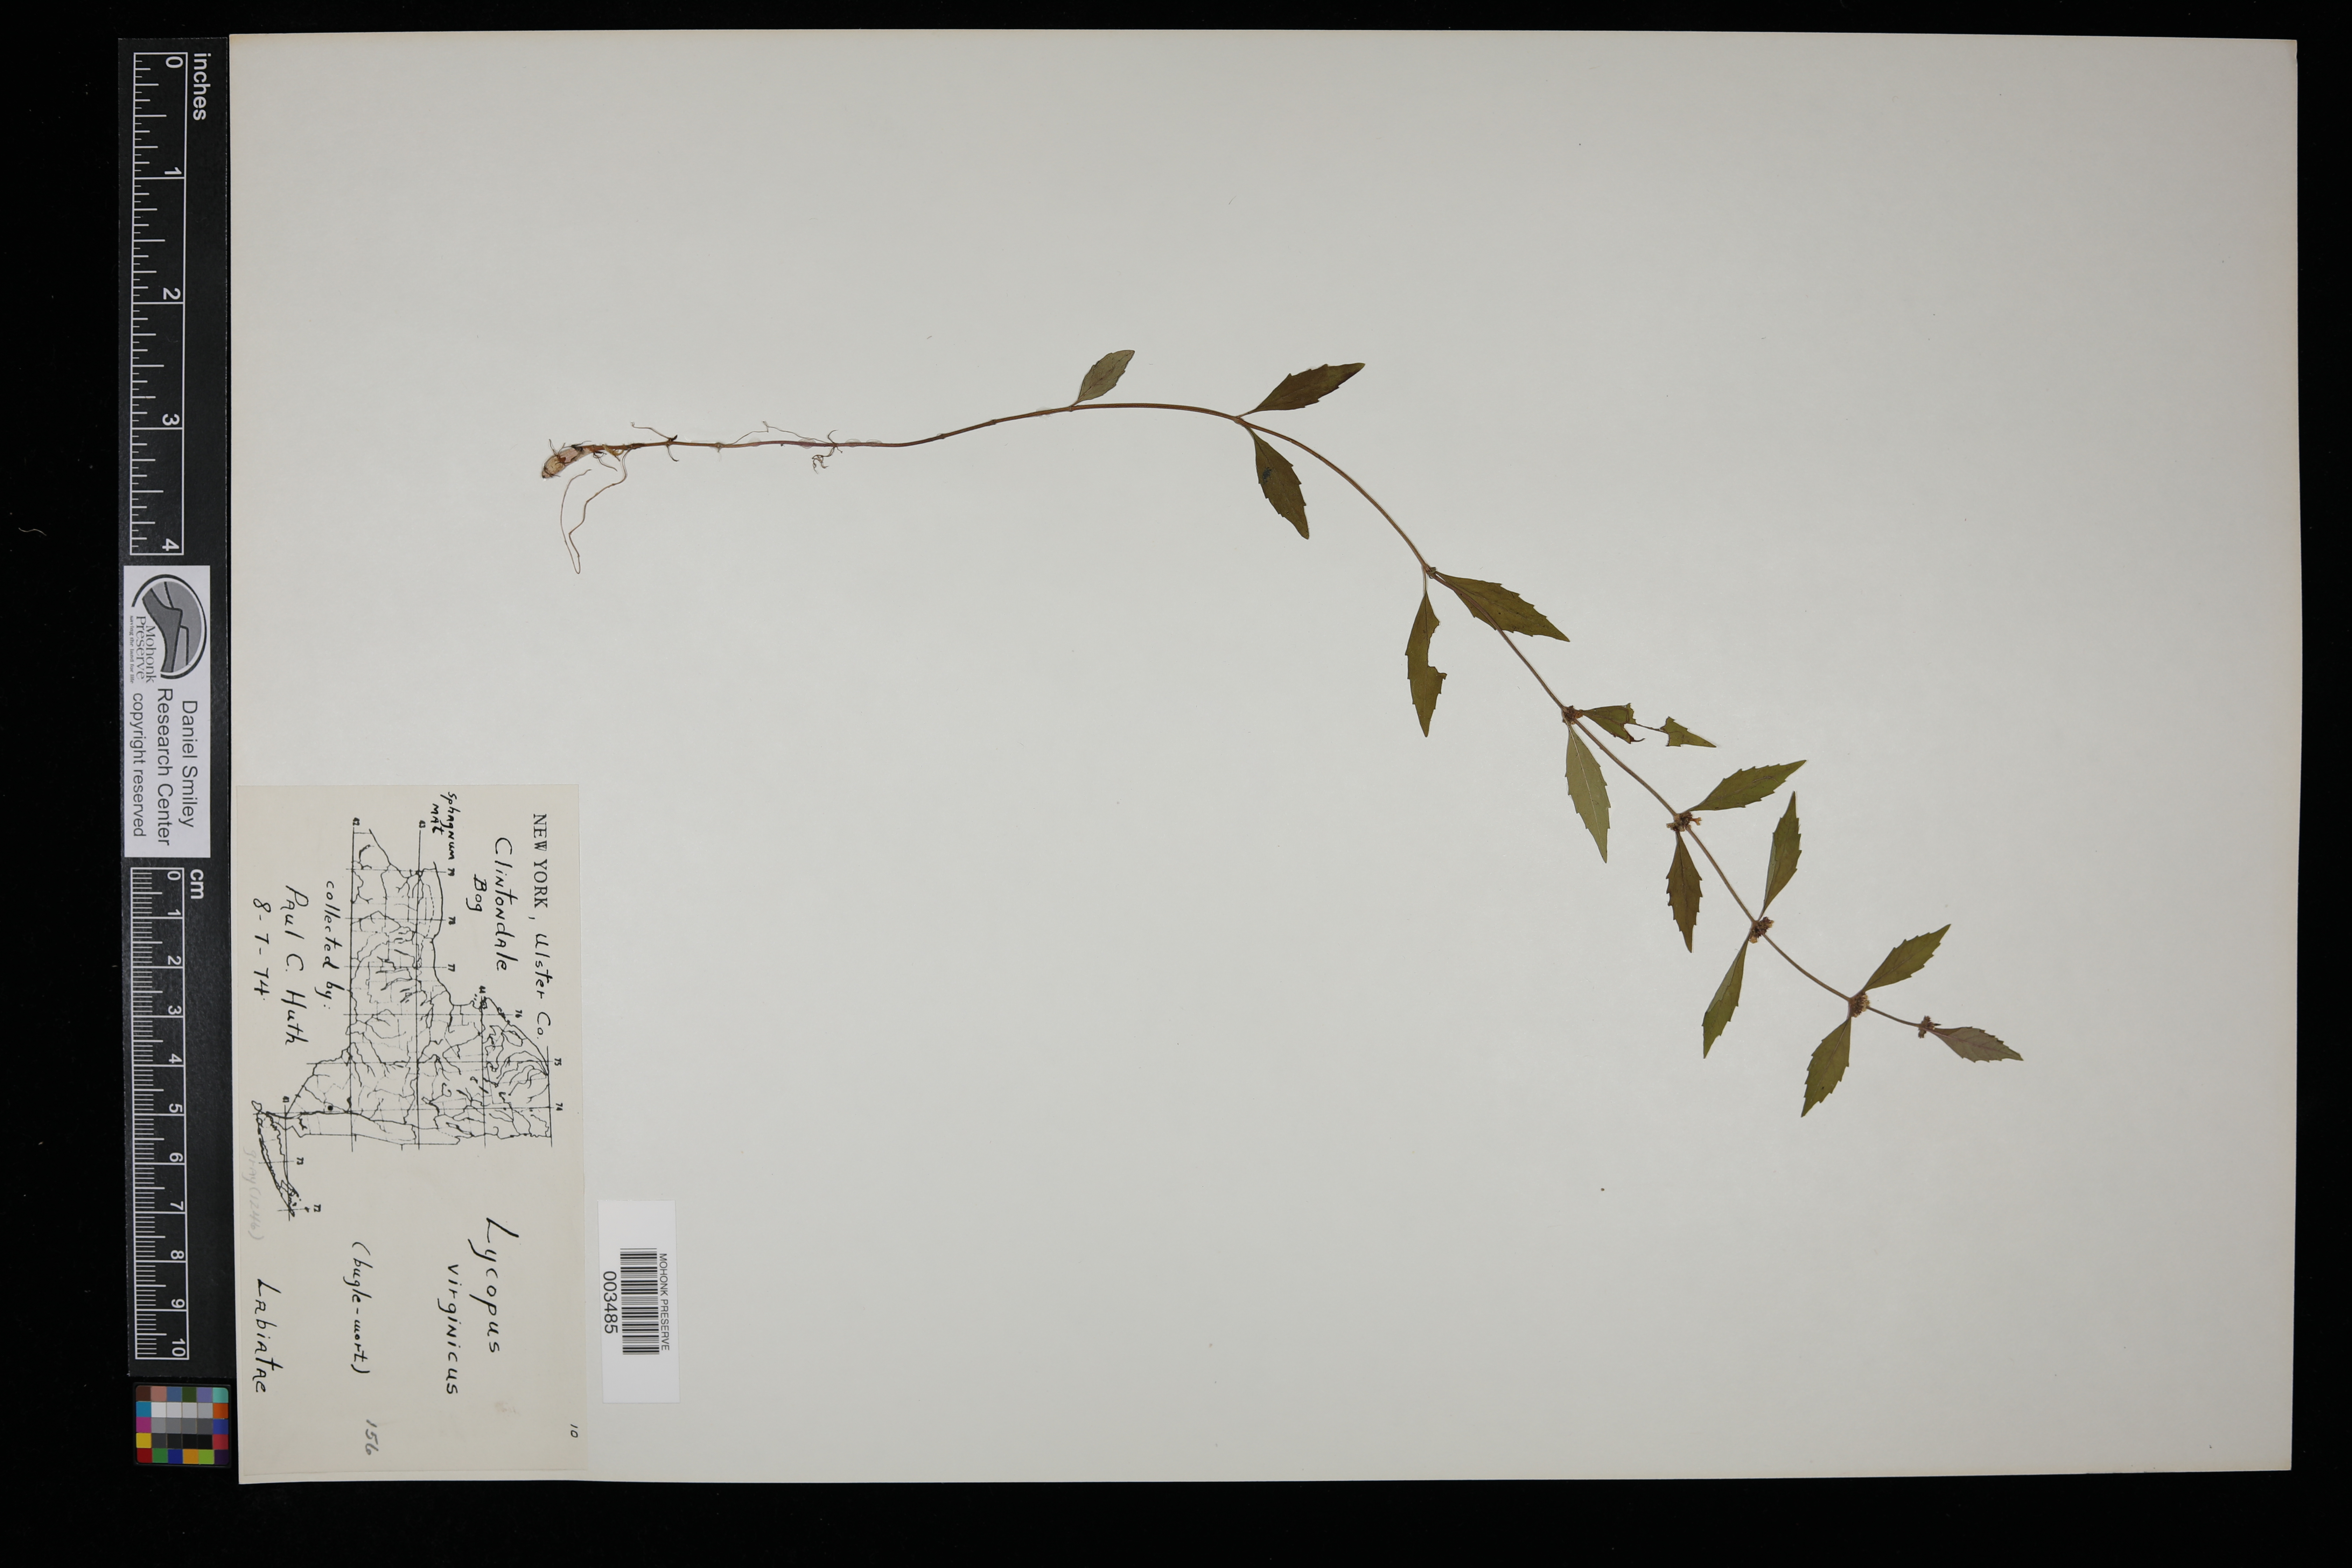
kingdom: Plantae
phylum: Tracheophyta
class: Magnoliopsida
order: Lamiales
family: Lamiaceae
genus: Lycopus
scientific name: Lycopus virginicus
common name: Bugleweed
